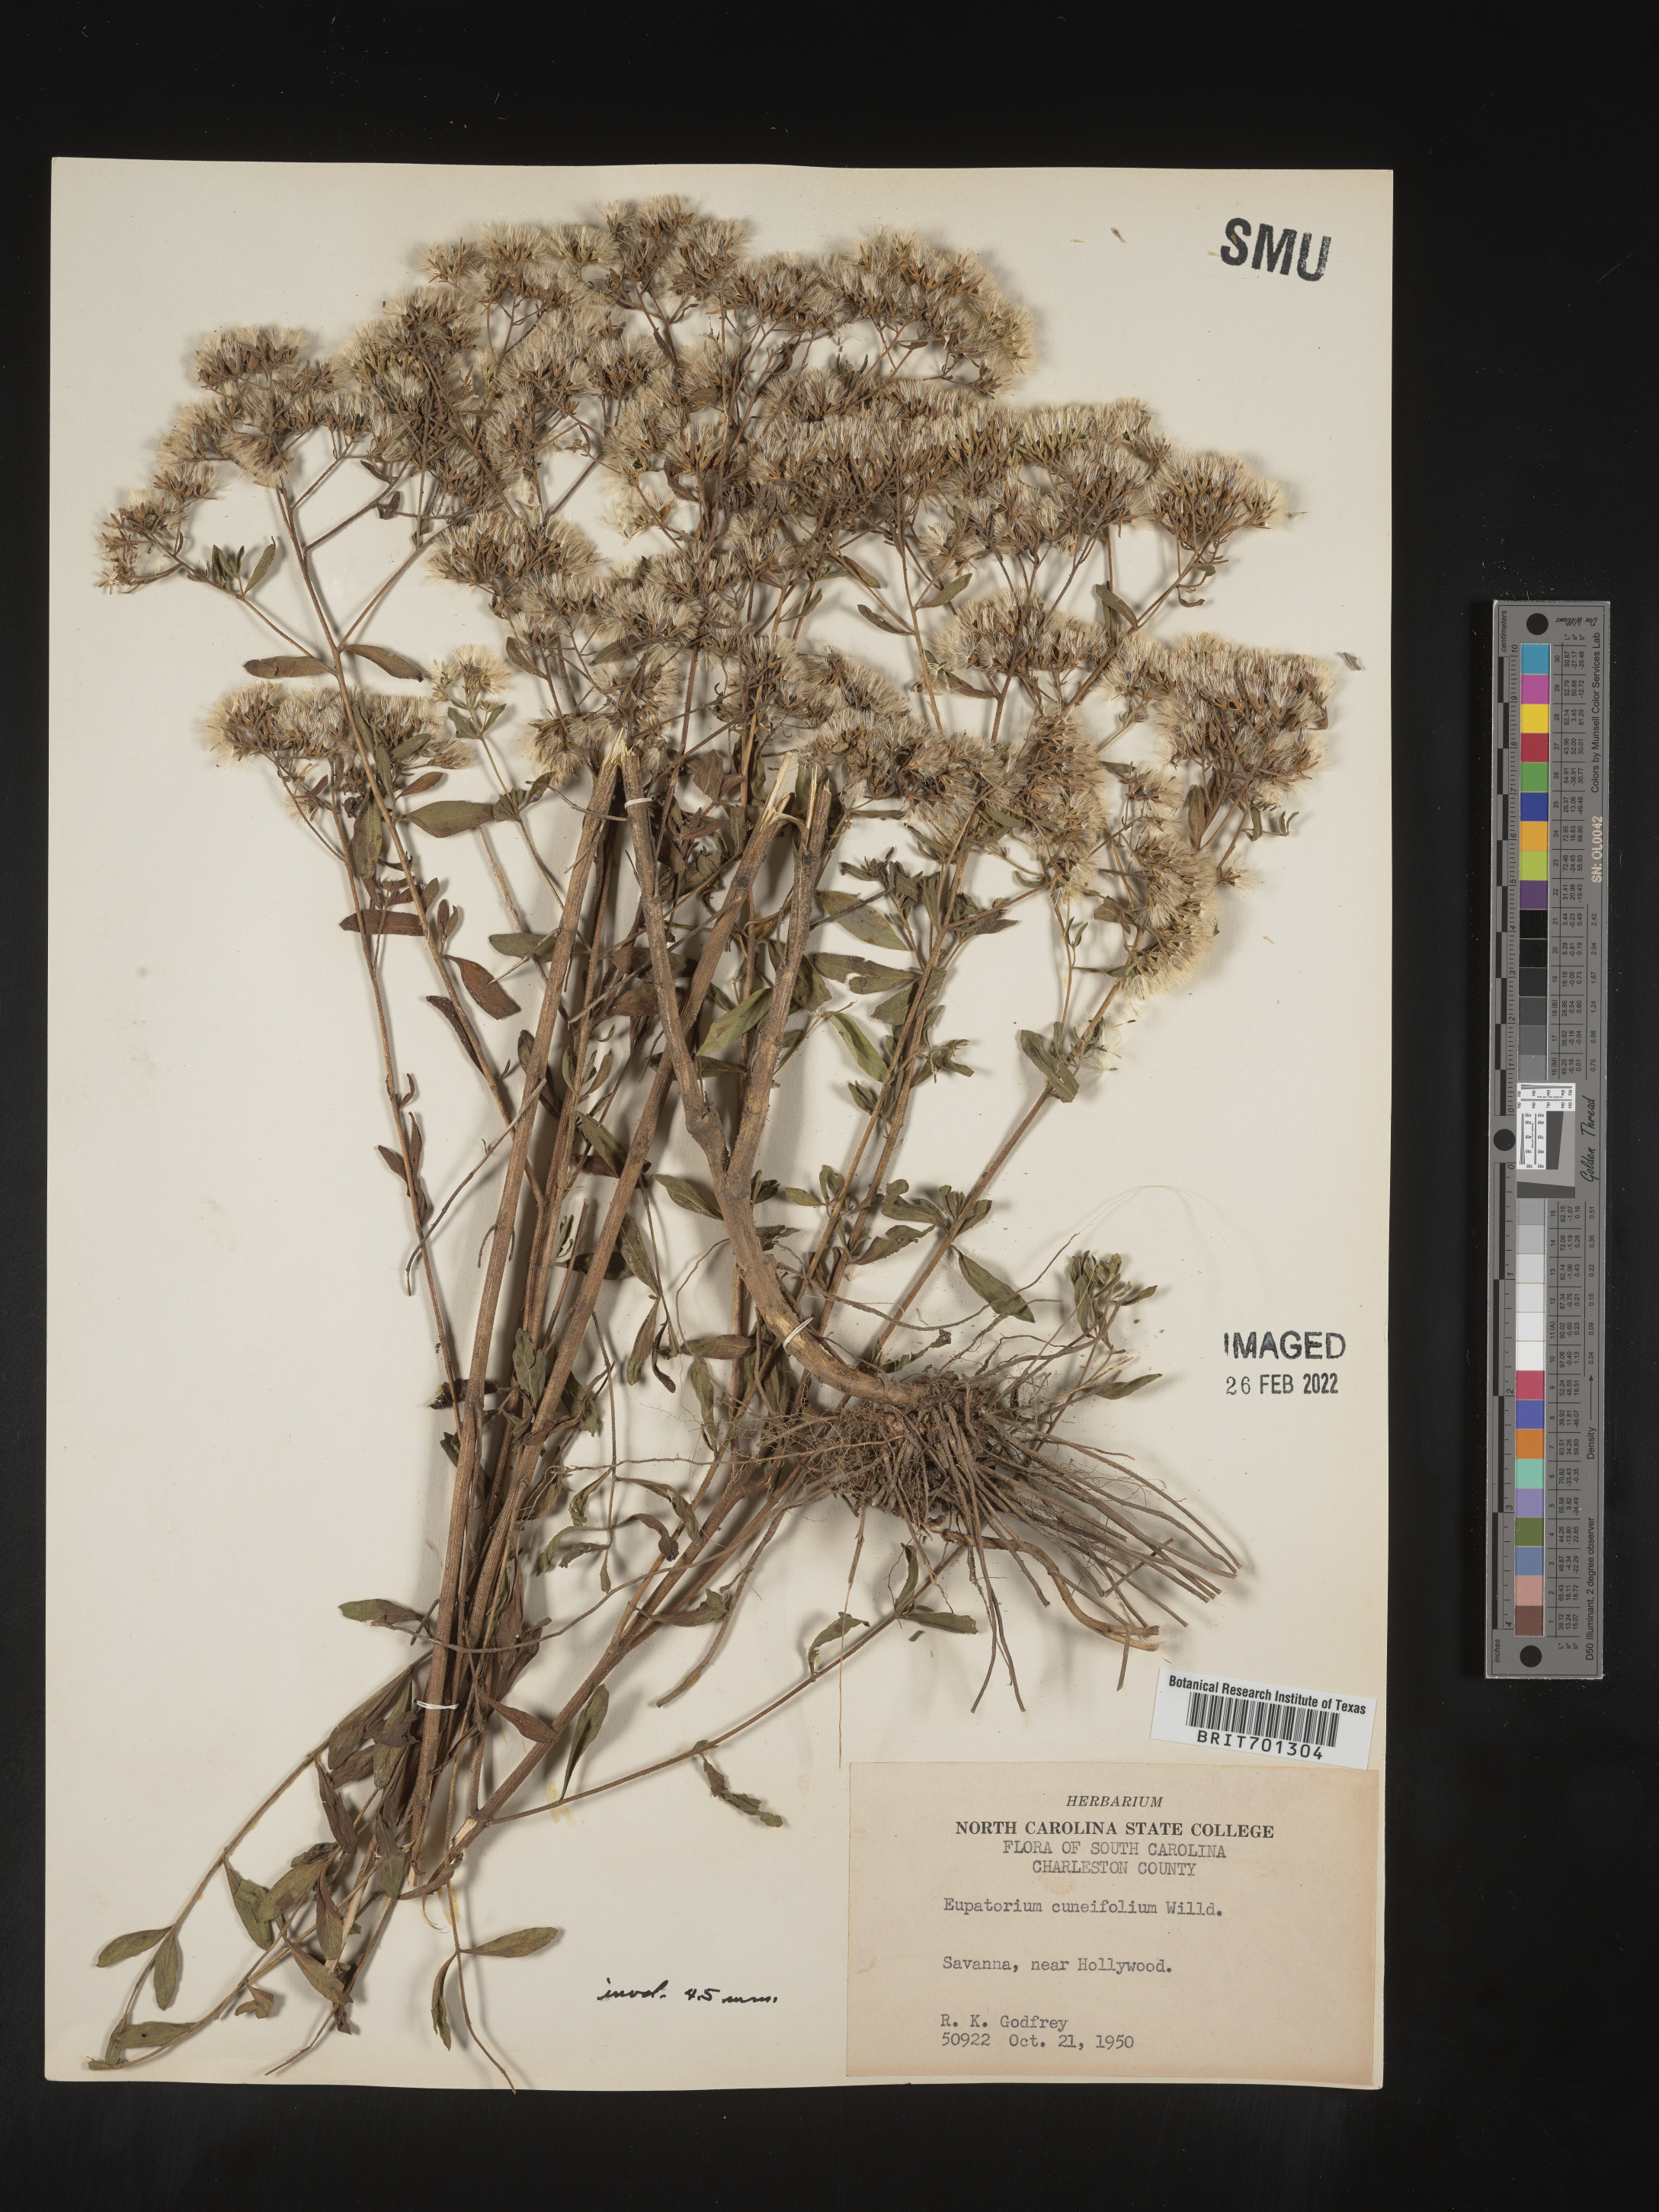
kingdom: Plantae
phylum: Tracheophyta
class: Magnoliopsida
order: Asterales
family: Asteraceae
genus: Eupatorium
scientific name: Eupatorium linearifolium
